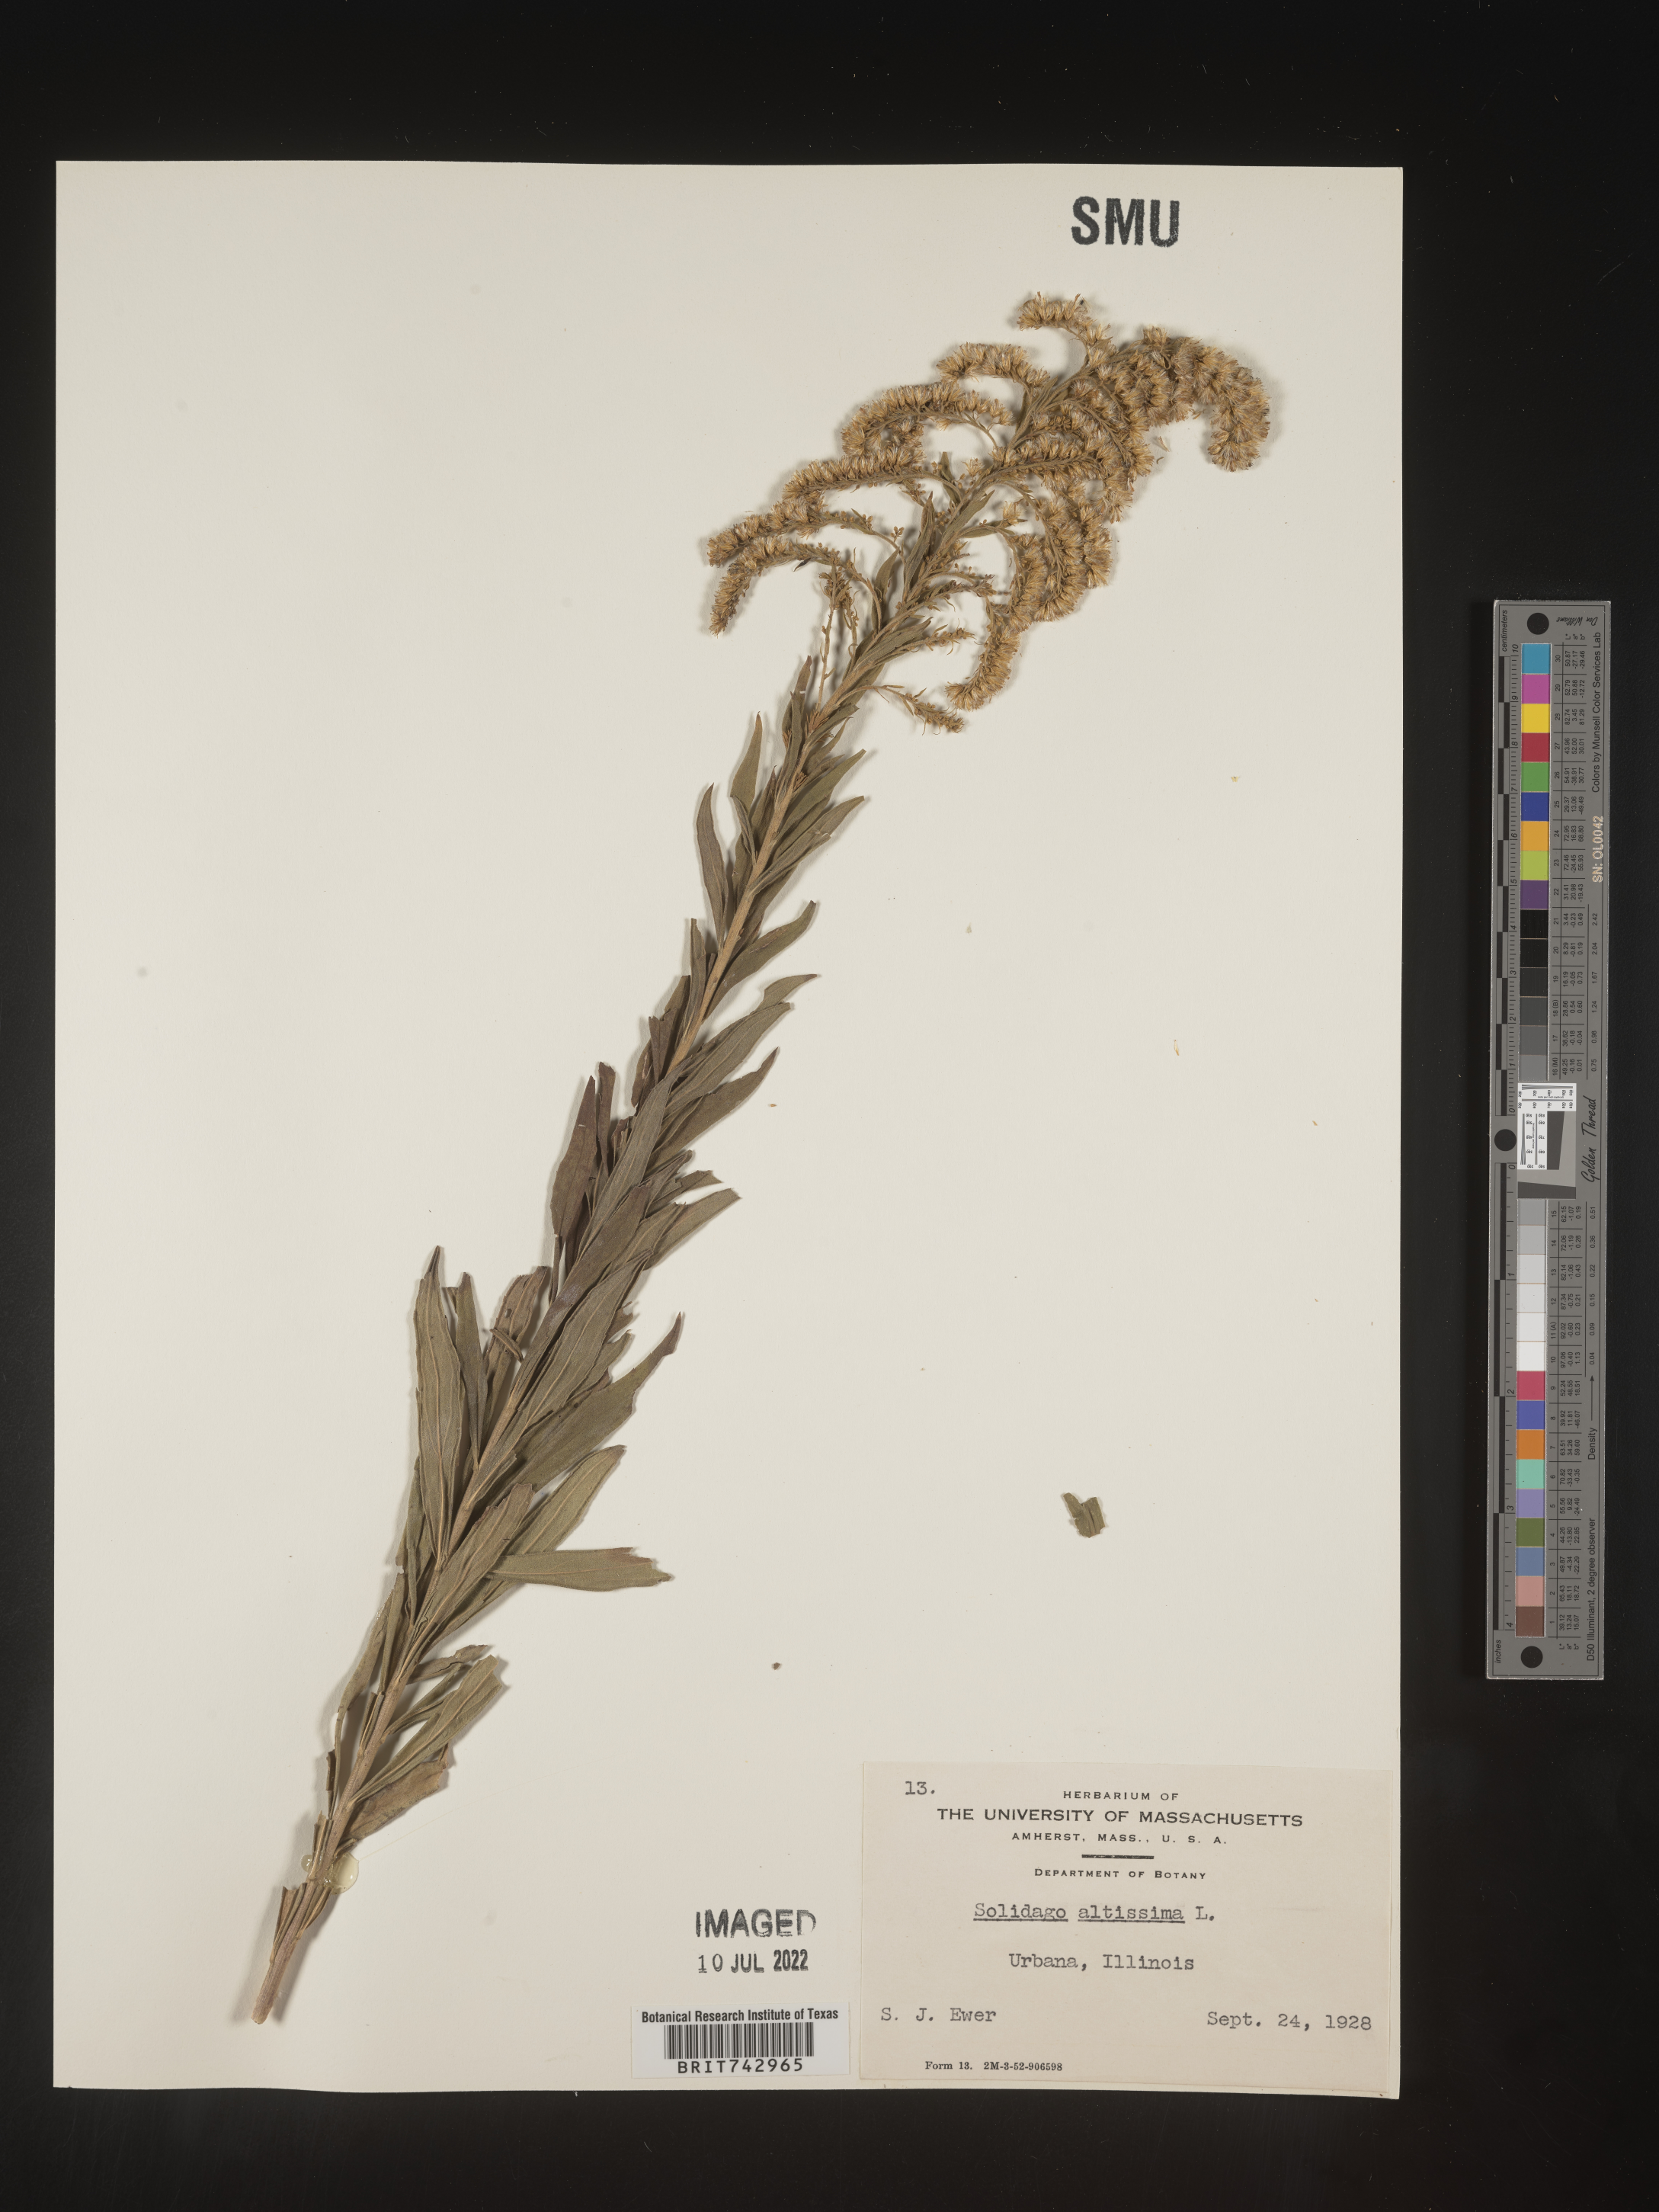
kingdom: Plantae
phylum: Tracheophyta
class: Magnoliopsida
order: Asterales
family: Asteraceae
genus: Solidago
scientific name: Solidago altissima
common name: Late goldenrod
